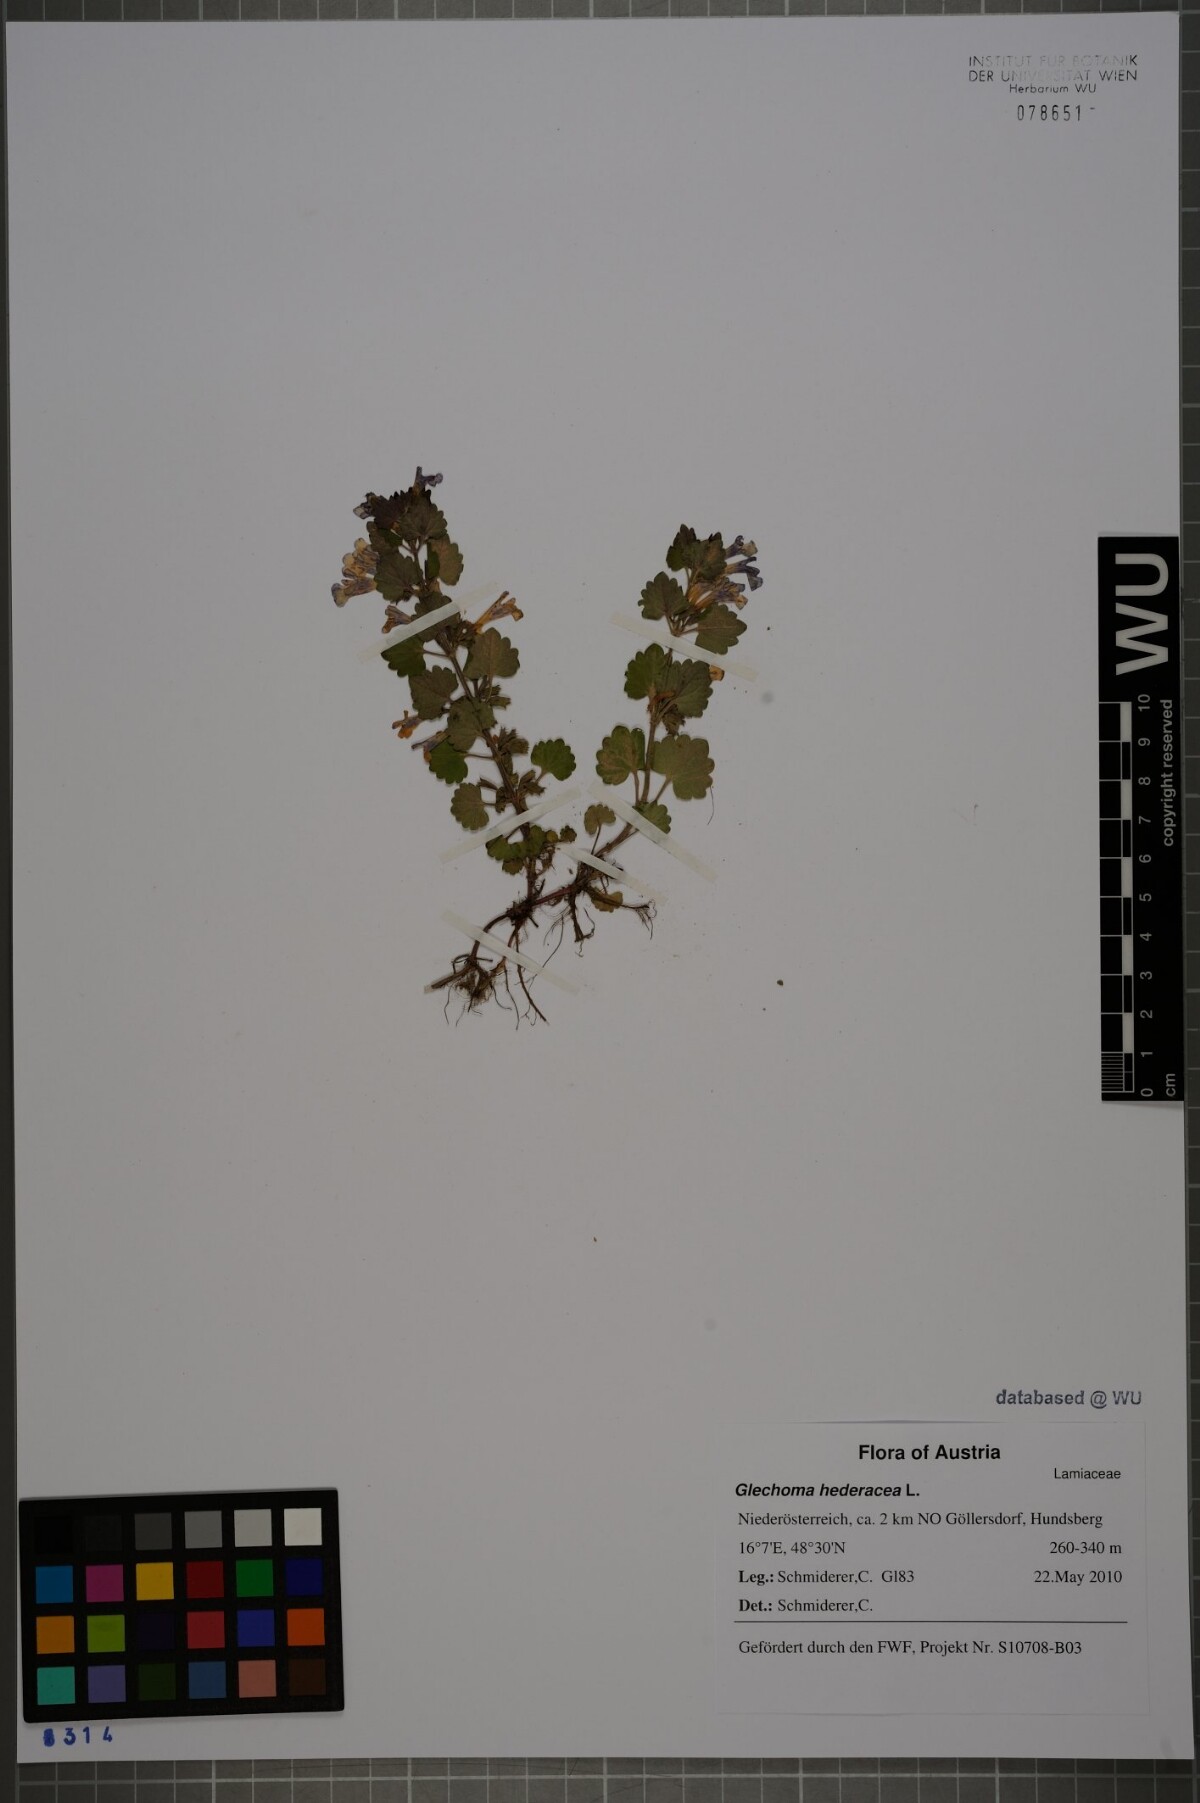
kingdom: Plantae
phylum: Tracheophyta
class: Magnoliopsida
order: Lamiales
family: Lamiaceae
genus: Glechoma
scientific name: Glechoma hederacea
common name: Ground ivy
